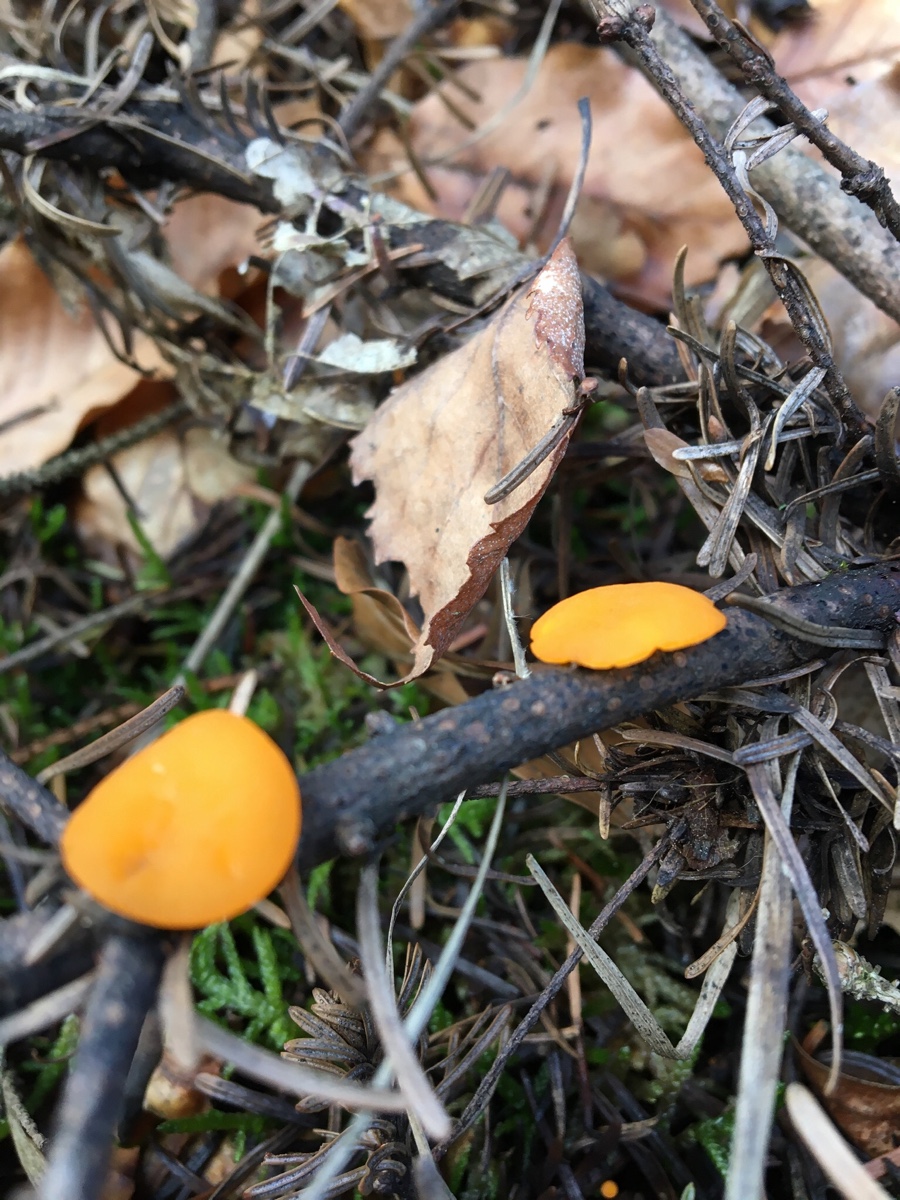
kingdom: Fungi
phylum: Ascomycota
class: Pezizomycetes
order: Pezizales
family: Sarcoscyphaceae
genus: Pithya
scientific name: Pithya vulgaris
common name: stor dukatbæger
